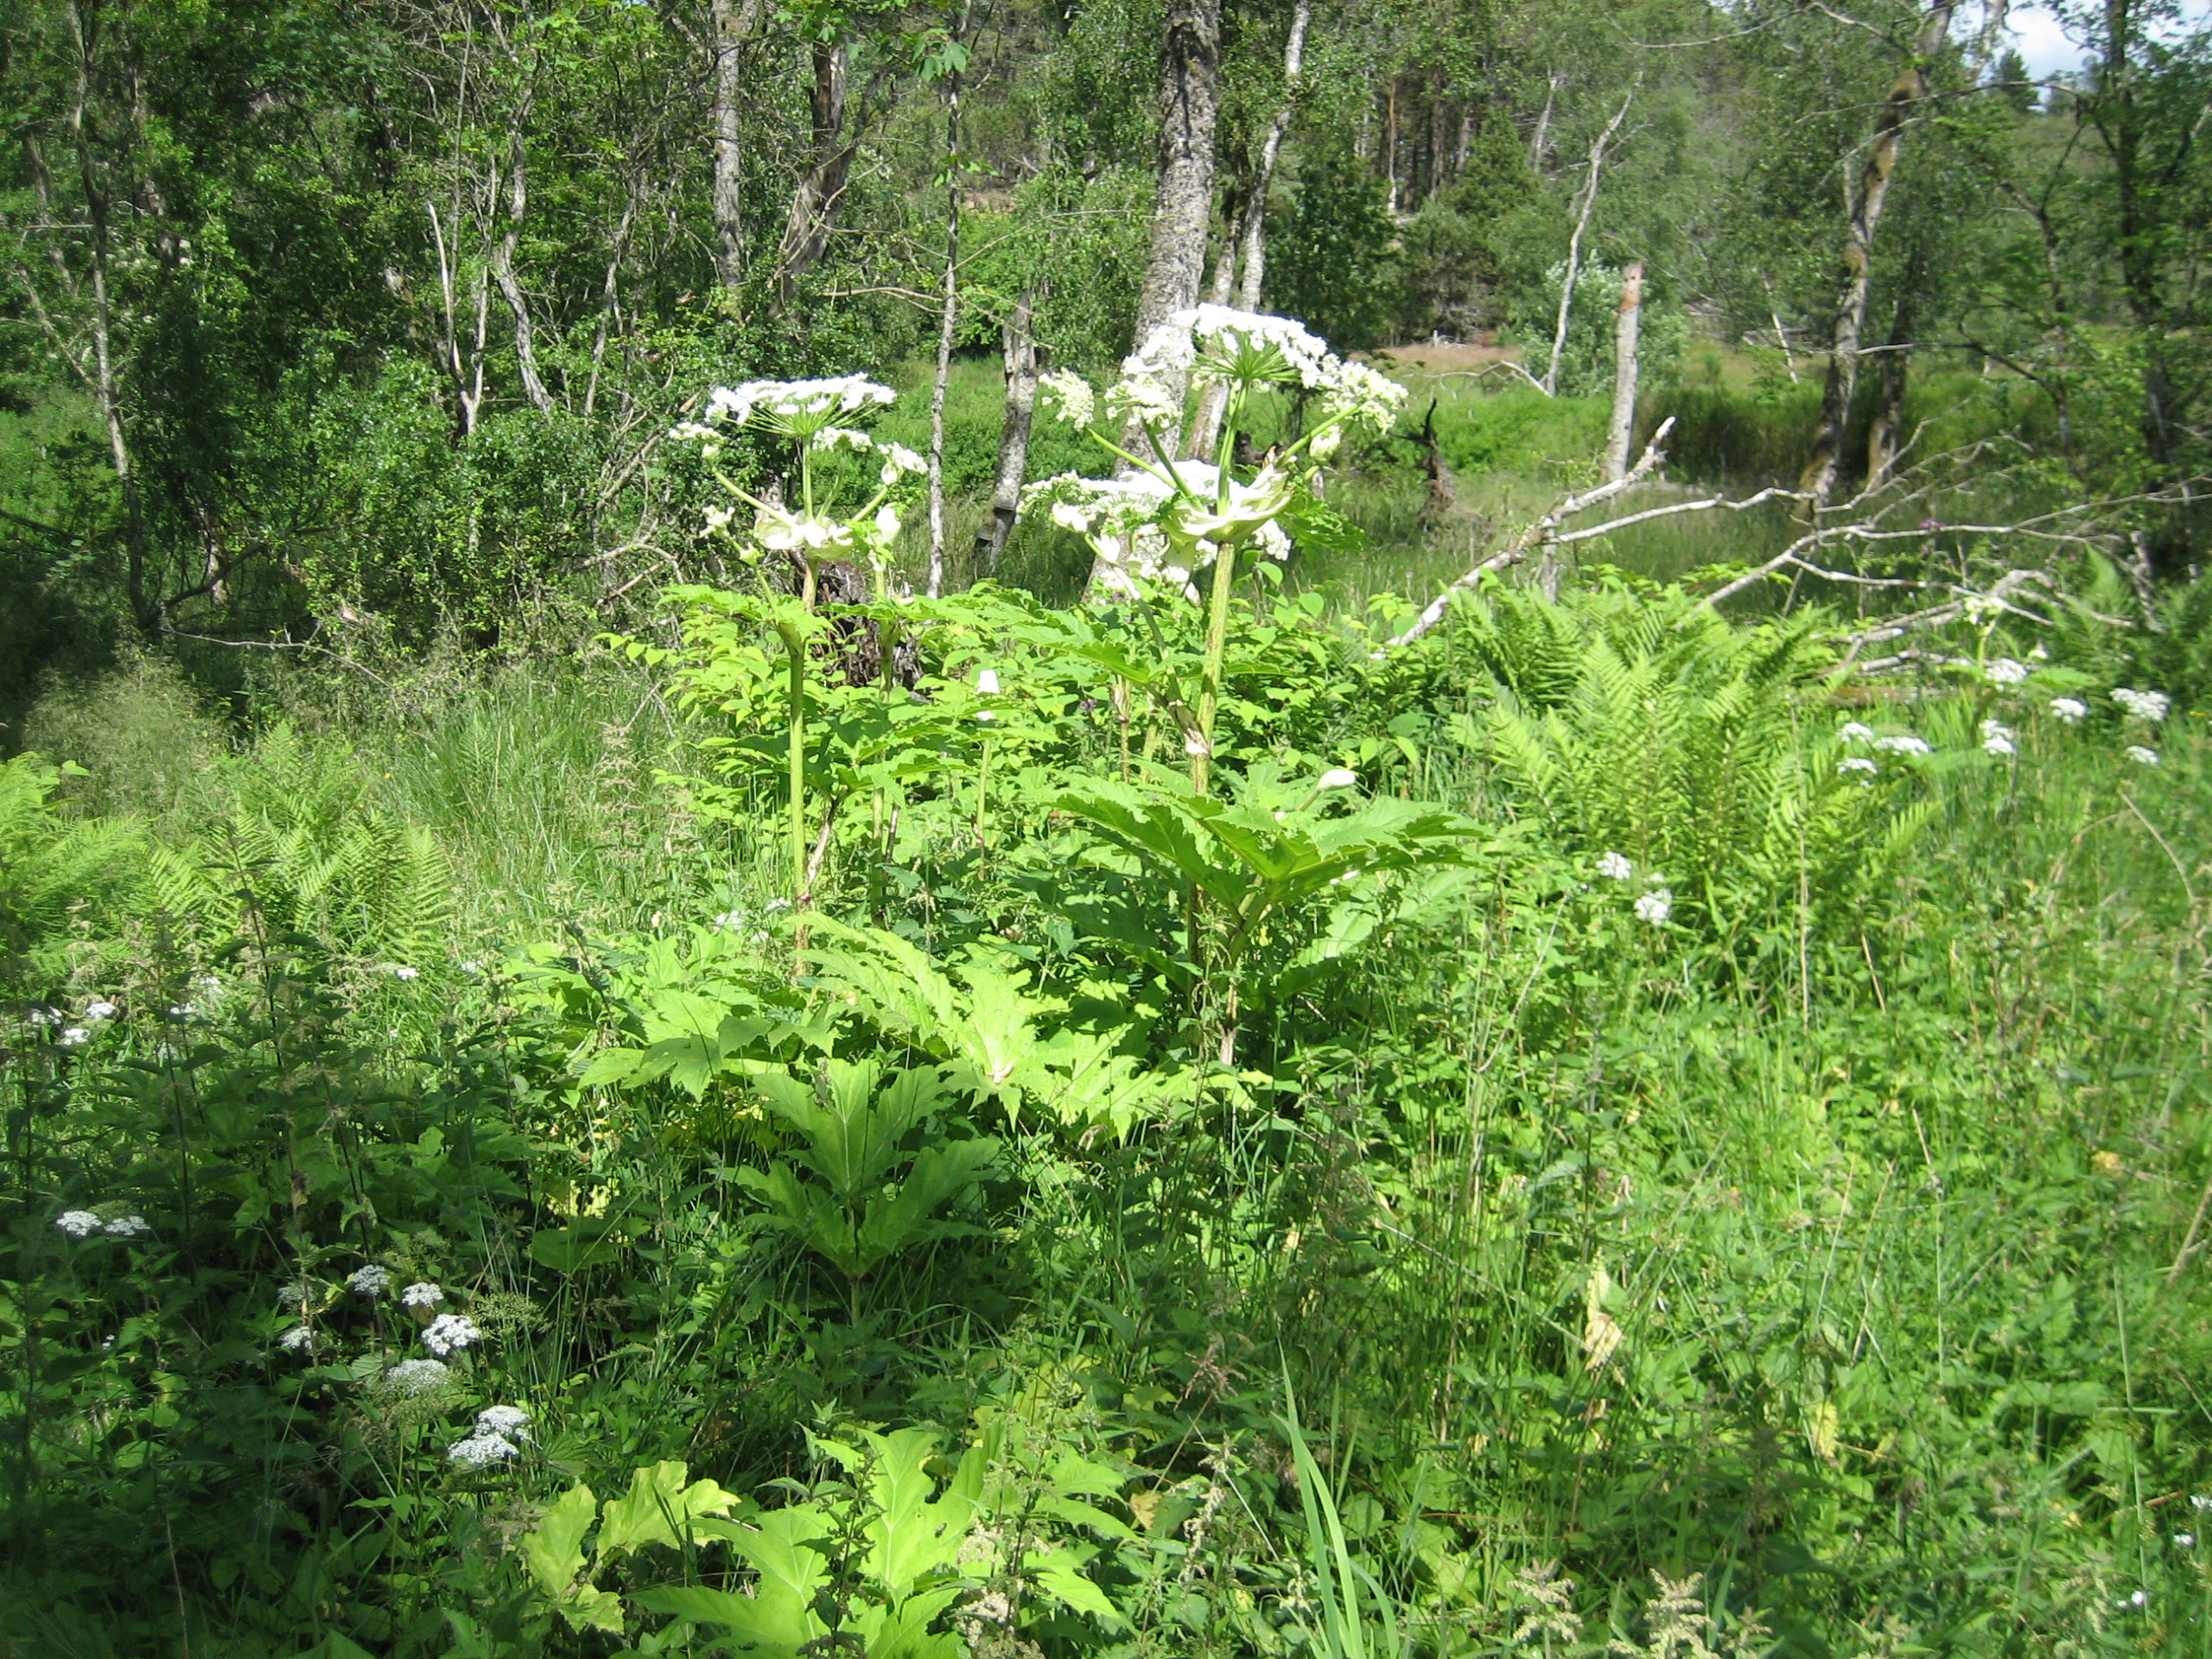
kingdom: Plantae
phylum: Tracheophyta
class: Magnoliopsida
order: Apiales
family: Apiaceae
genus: Heracleum
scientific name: Heracleum mantegazzianum
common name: Kæmpe-bjørneklo
